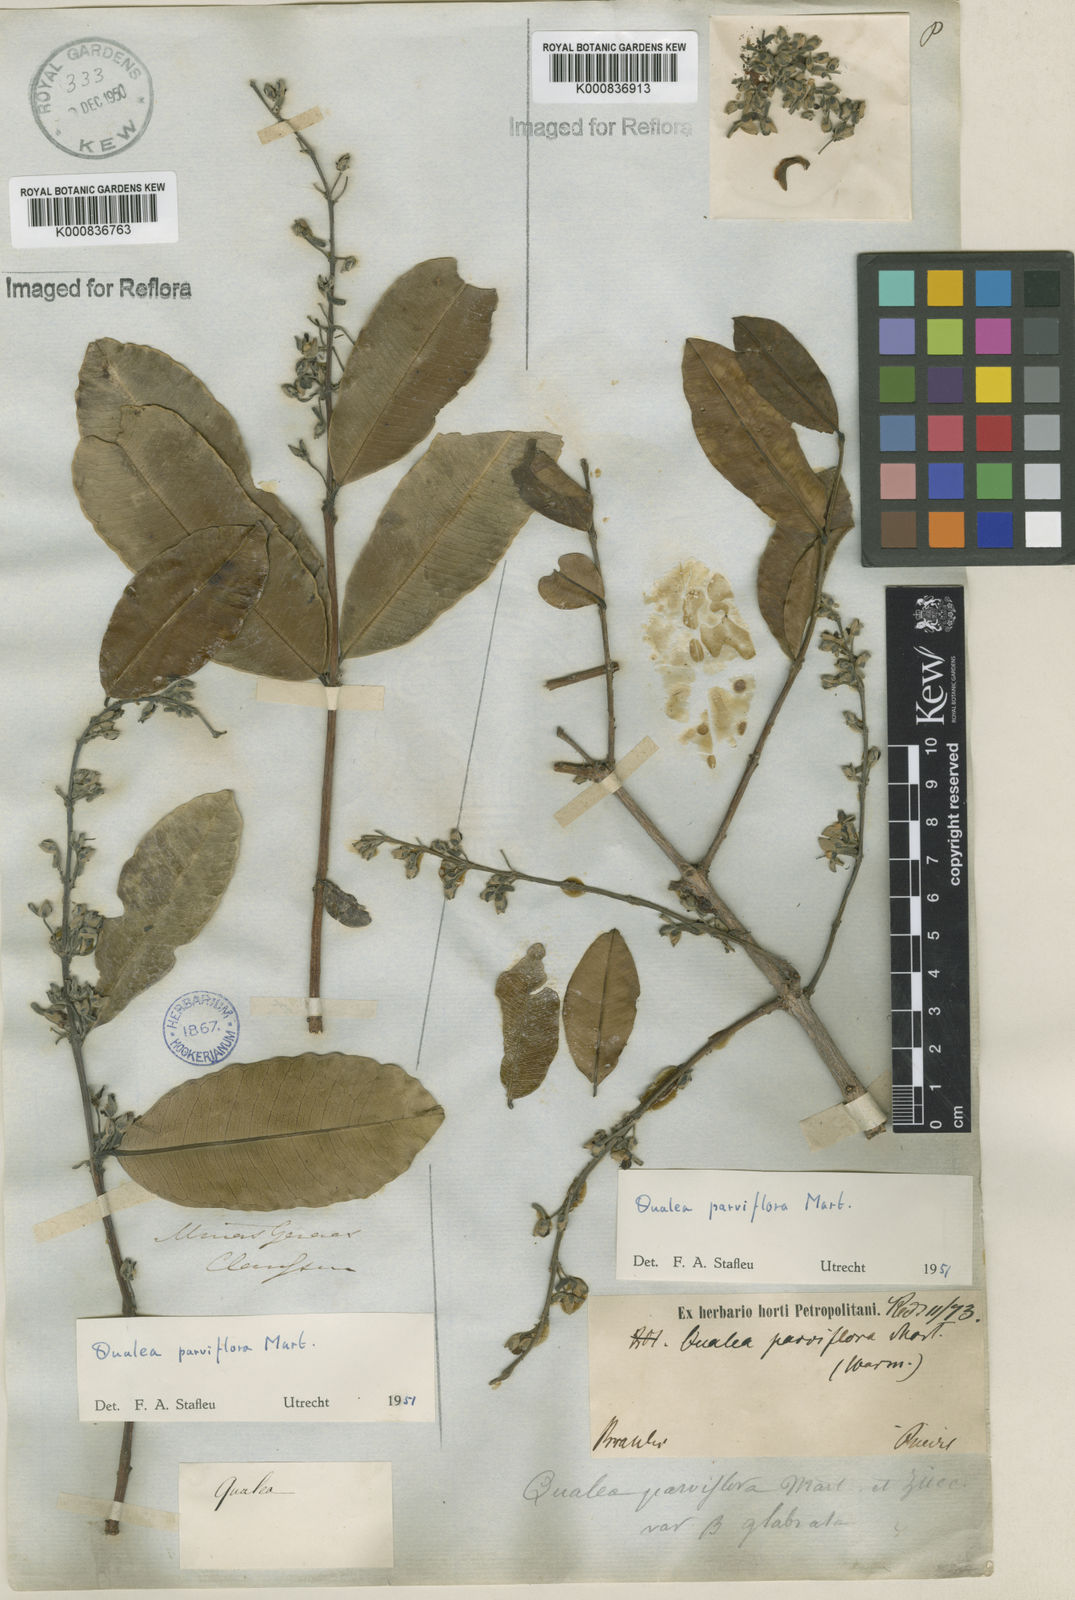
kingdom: Plantae
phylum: Tracheophyta
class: Magnoliopsida
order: Myrtales
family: Vochysiaceae
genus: Qualea
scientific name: Qualea parviflora
